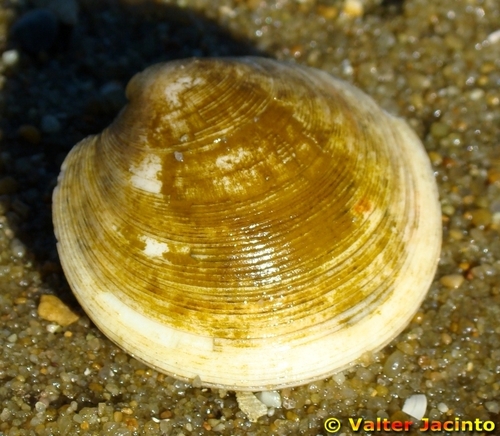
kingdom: Animalia
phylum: Mollusca
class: Bivalvia
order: Venerida
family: Veneridae
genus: Dosinia
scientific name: Dosinia exoleta
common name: Rayed artemis
